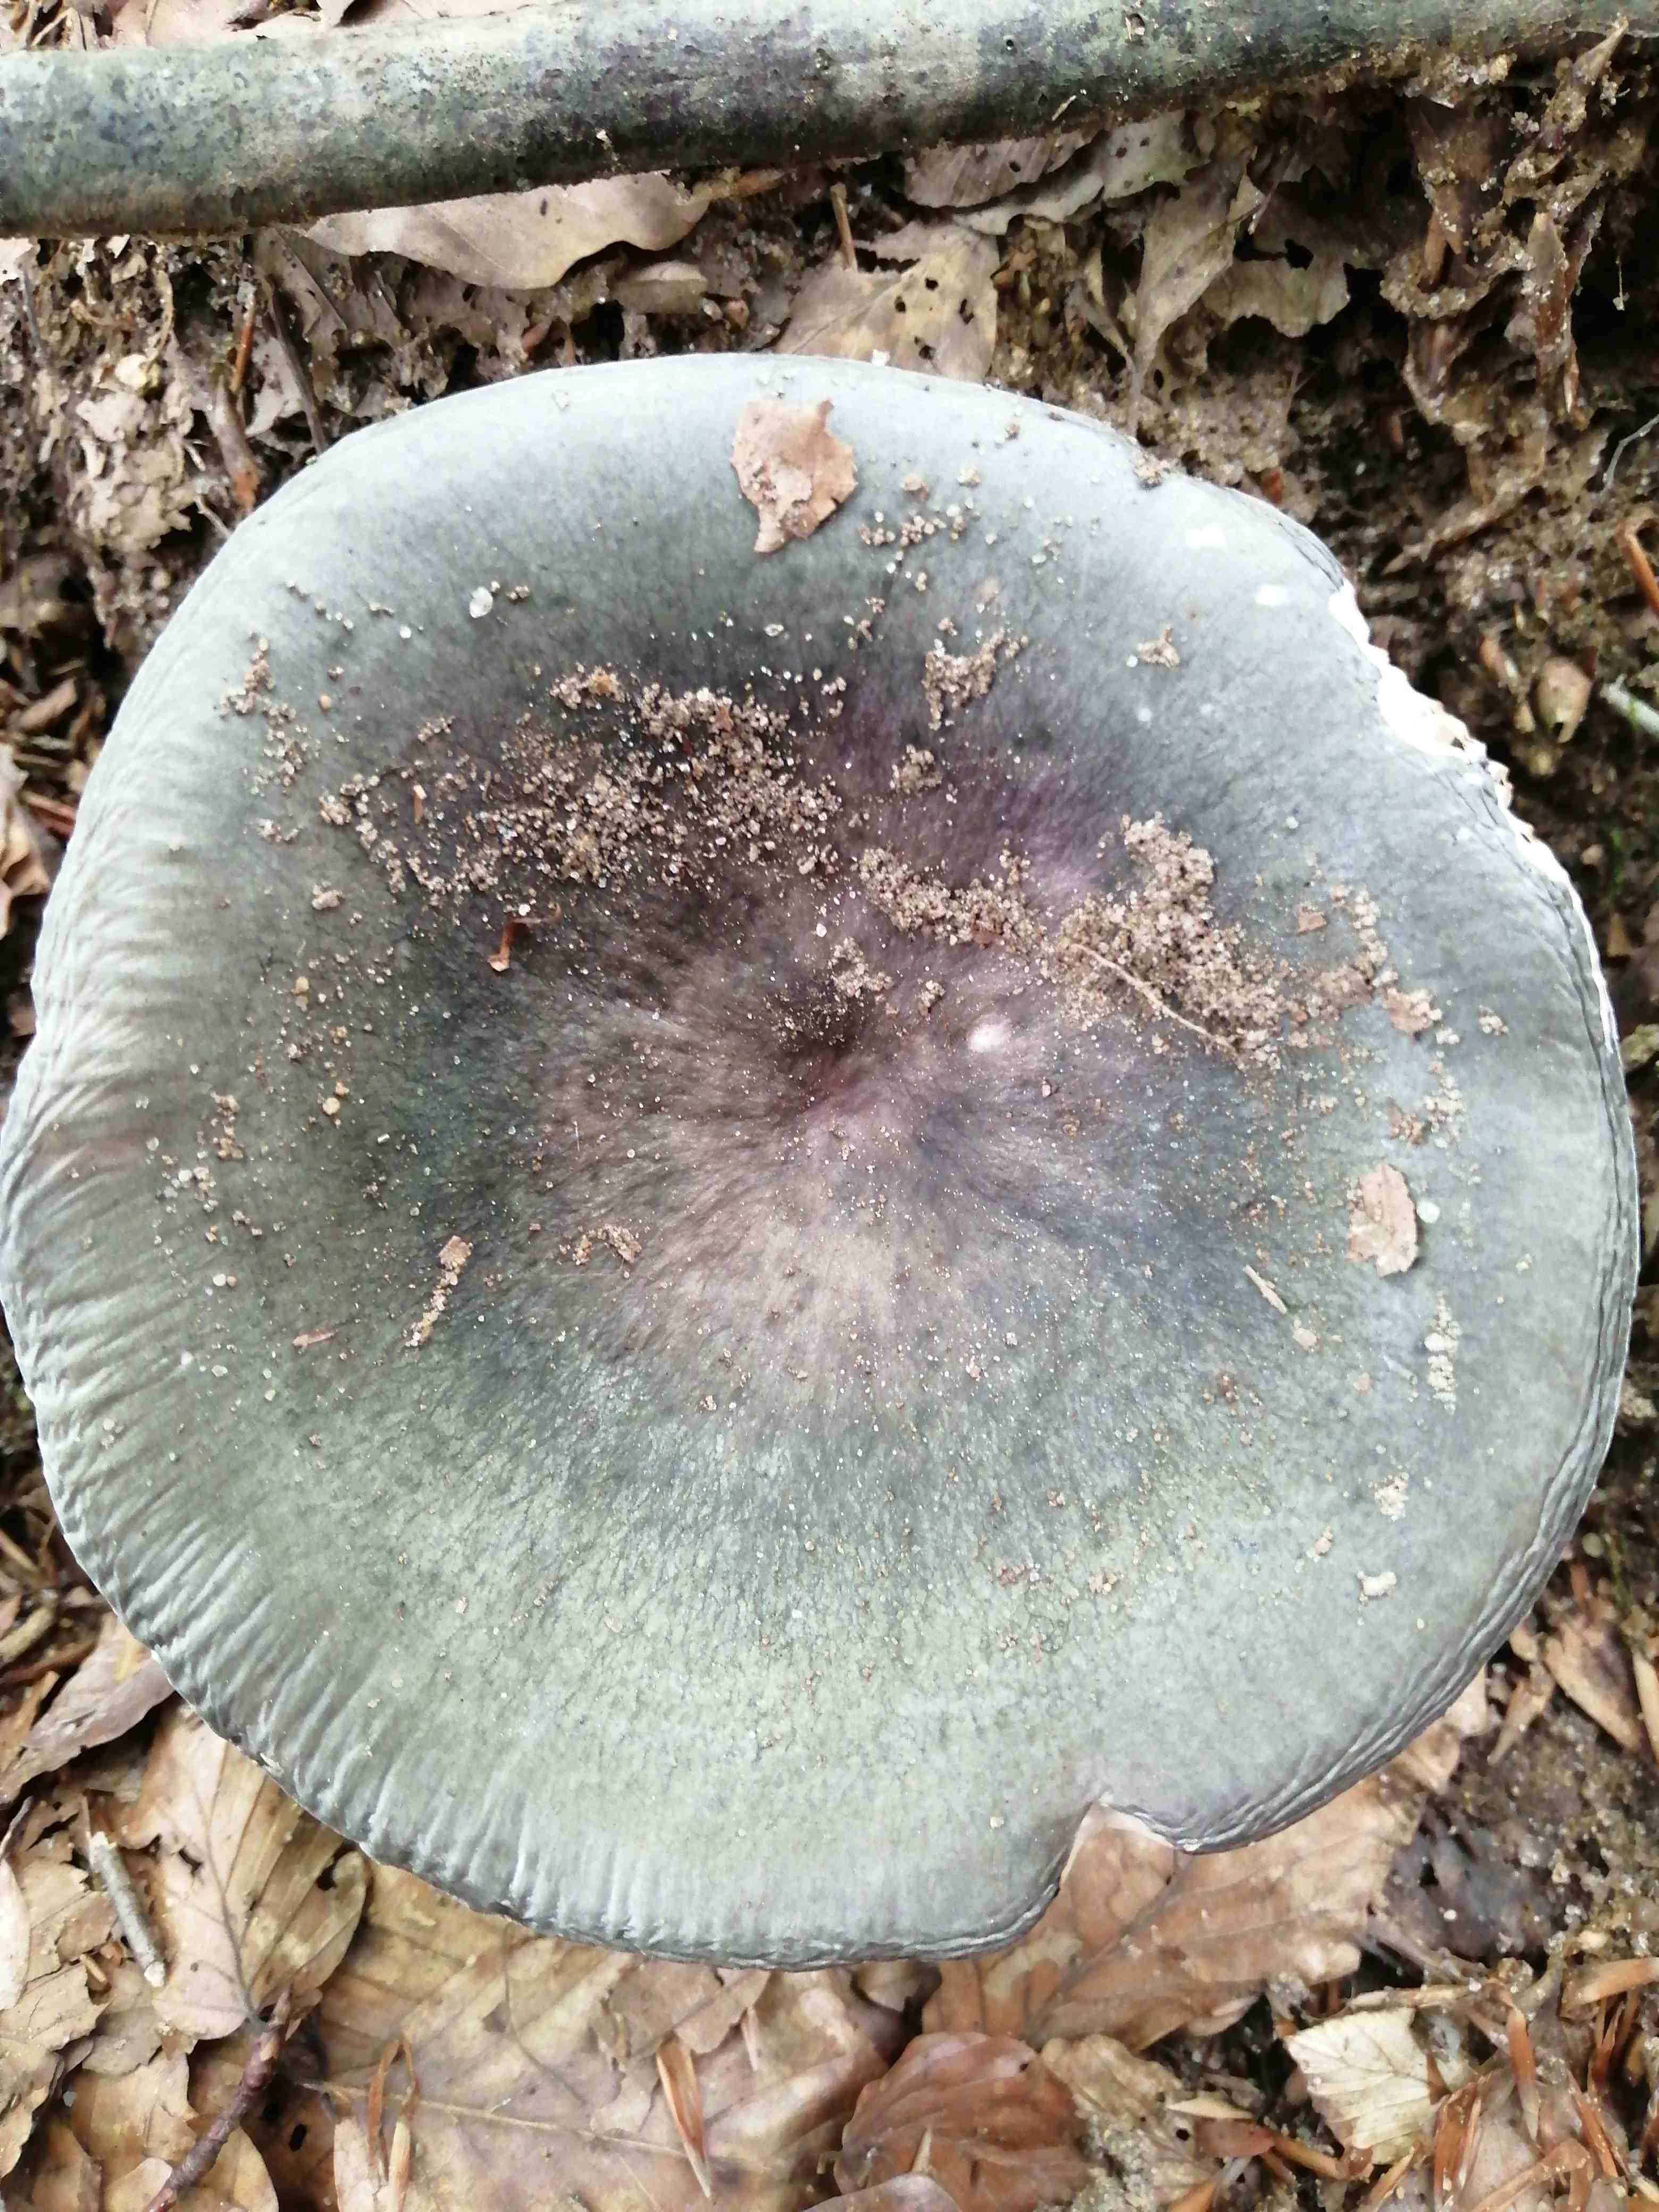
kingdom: Fungi
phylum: Basidiomycota
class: Agaricomycetes
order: Russulales
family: Russulaceae
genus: Russula
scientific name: Russula parazurea
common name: blågrå skørhat
